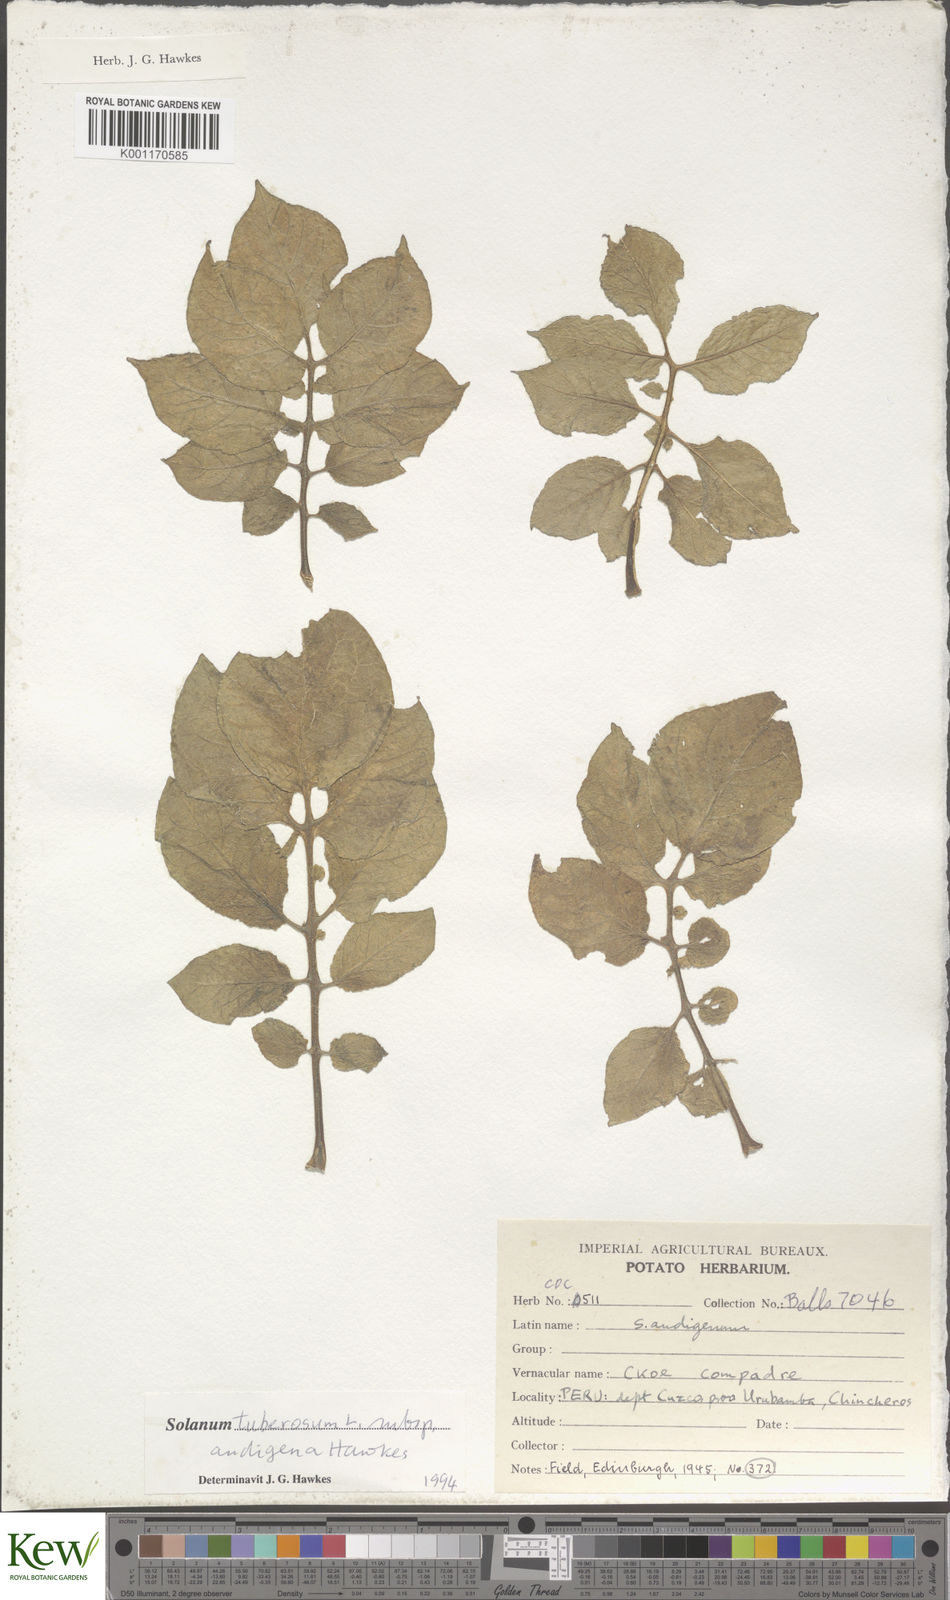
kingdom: Plantae
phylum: Tracheophyta
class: Magnoliopsida
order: Solanales
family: Solanaceae
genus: Solanum
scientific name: Solanum tuberosum
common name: Potato
